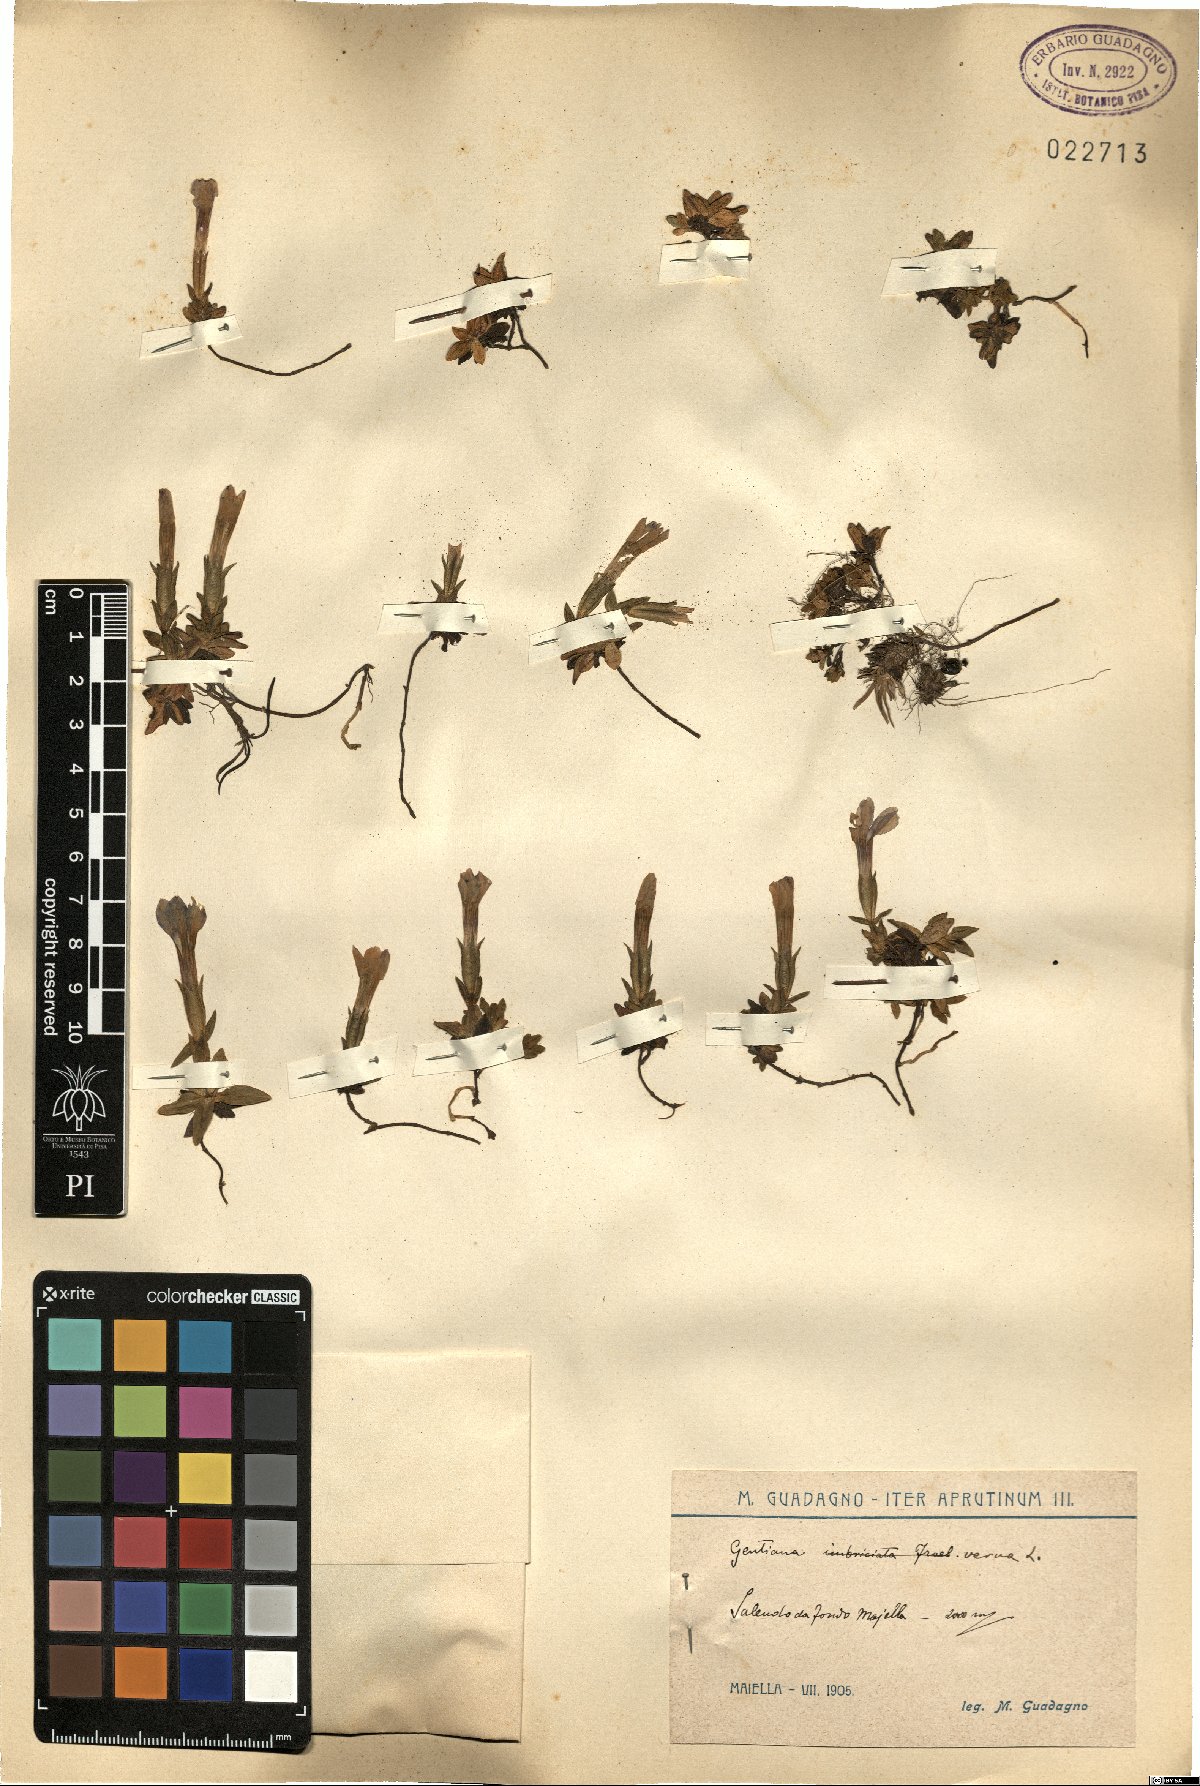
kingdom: Plantae
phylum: Tracheophyta
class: Magnoliopsida
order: Gentianales
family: Gentianaceae
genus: Gentiana
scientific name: Gentiana verna
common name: Spring gentian
